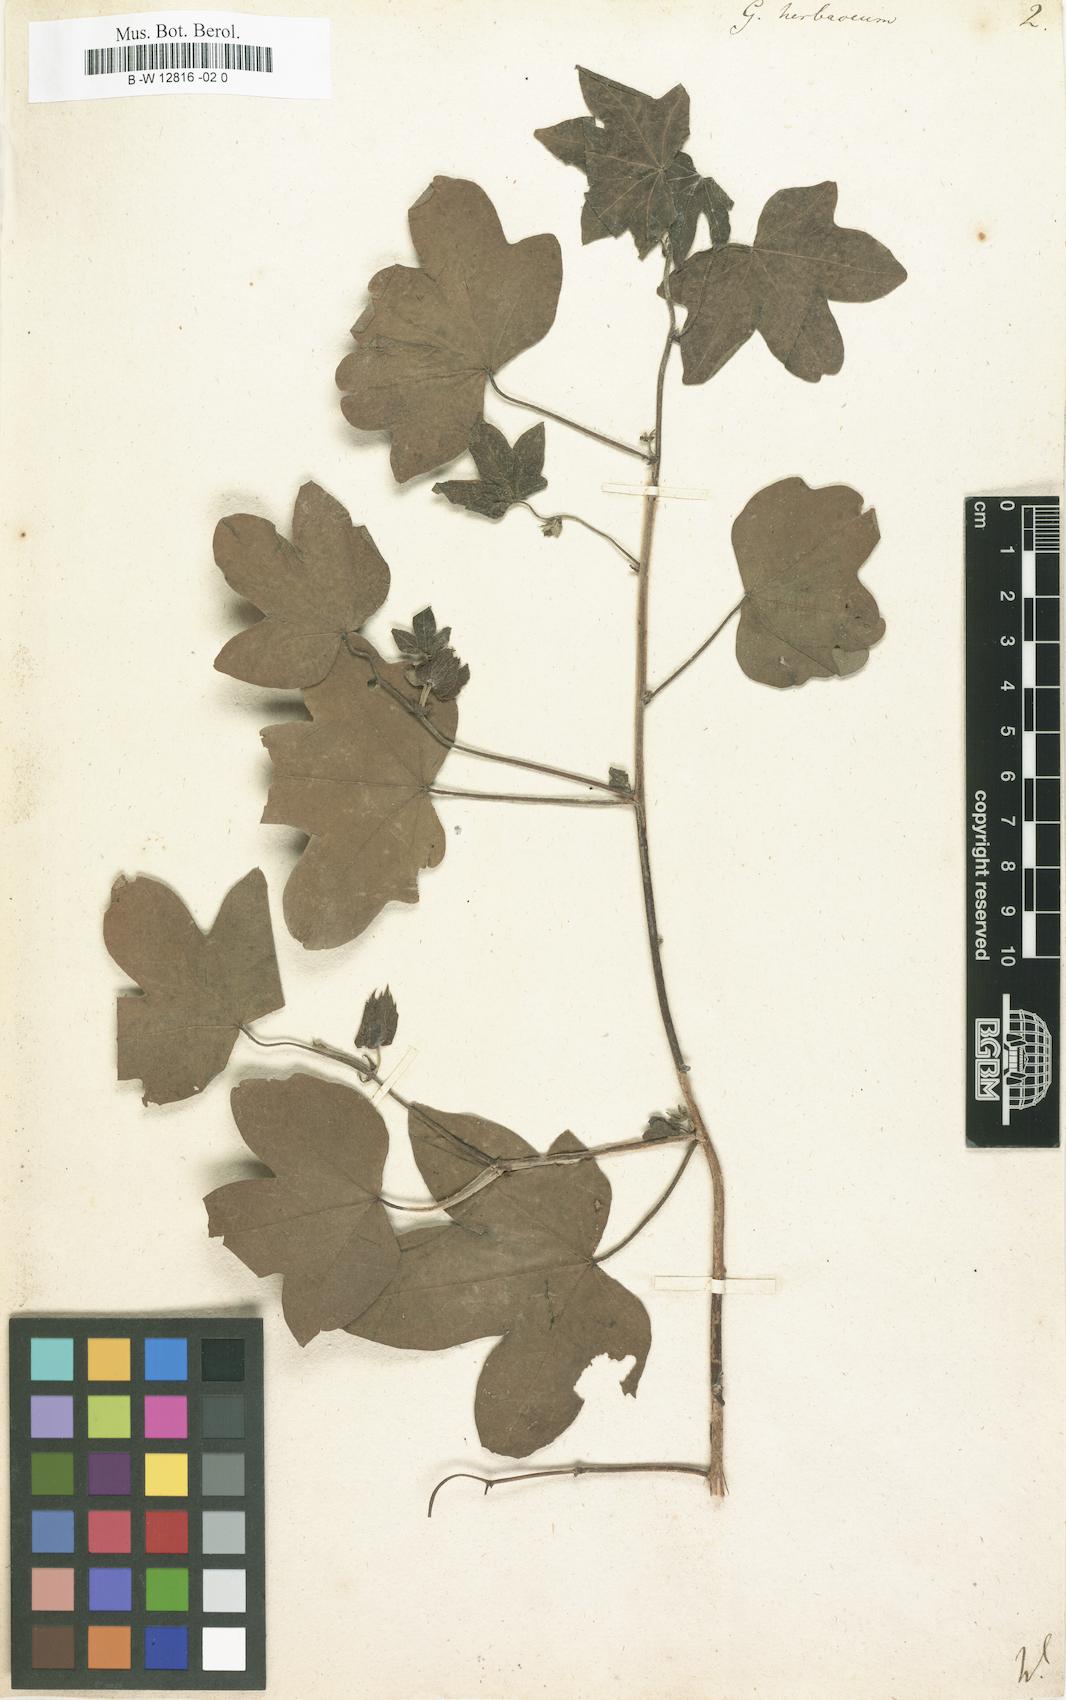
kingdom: Plantae
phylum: Tracheophyta
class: Magnoliopsida
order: Malvales
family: Malvaceae
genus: Gossypium
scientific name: Gossypium herbaceum
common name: Levant cotton
